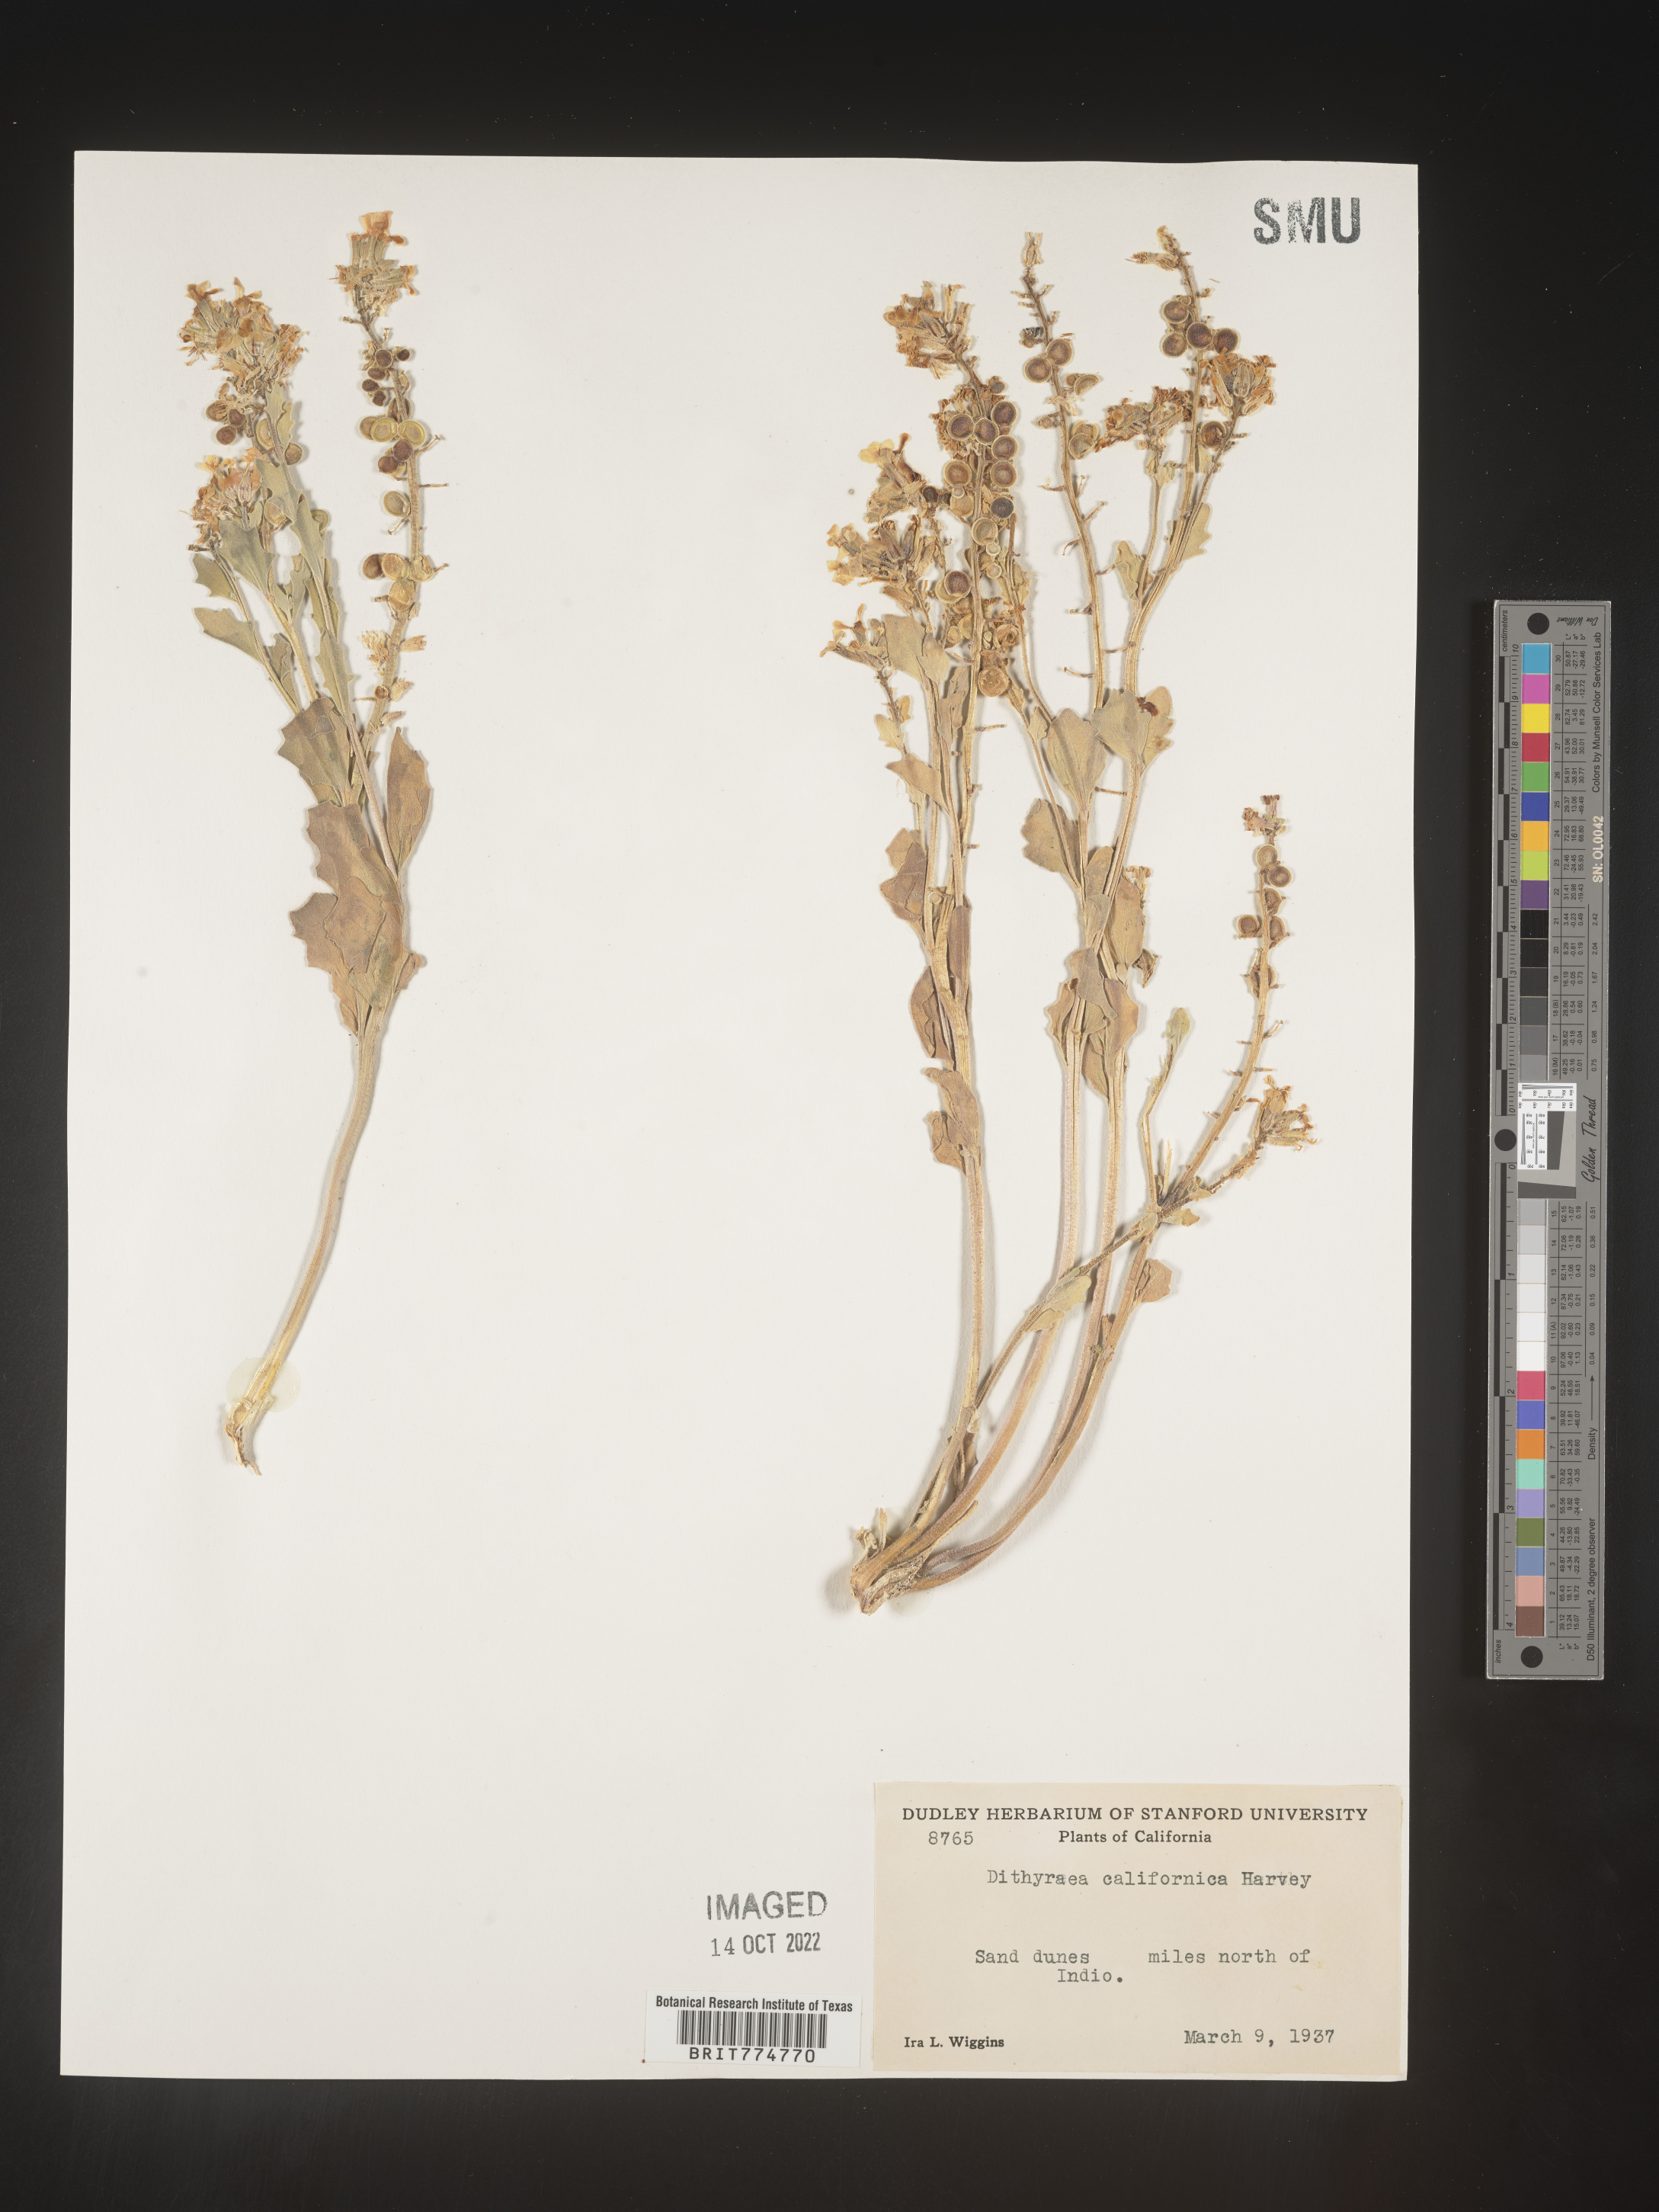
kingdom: Plantae
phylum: Tracheophyta
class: Magnoliopsida
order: Brassicales
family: Brassicaceae
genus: Dithyrea
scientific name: Dithyrea californica
